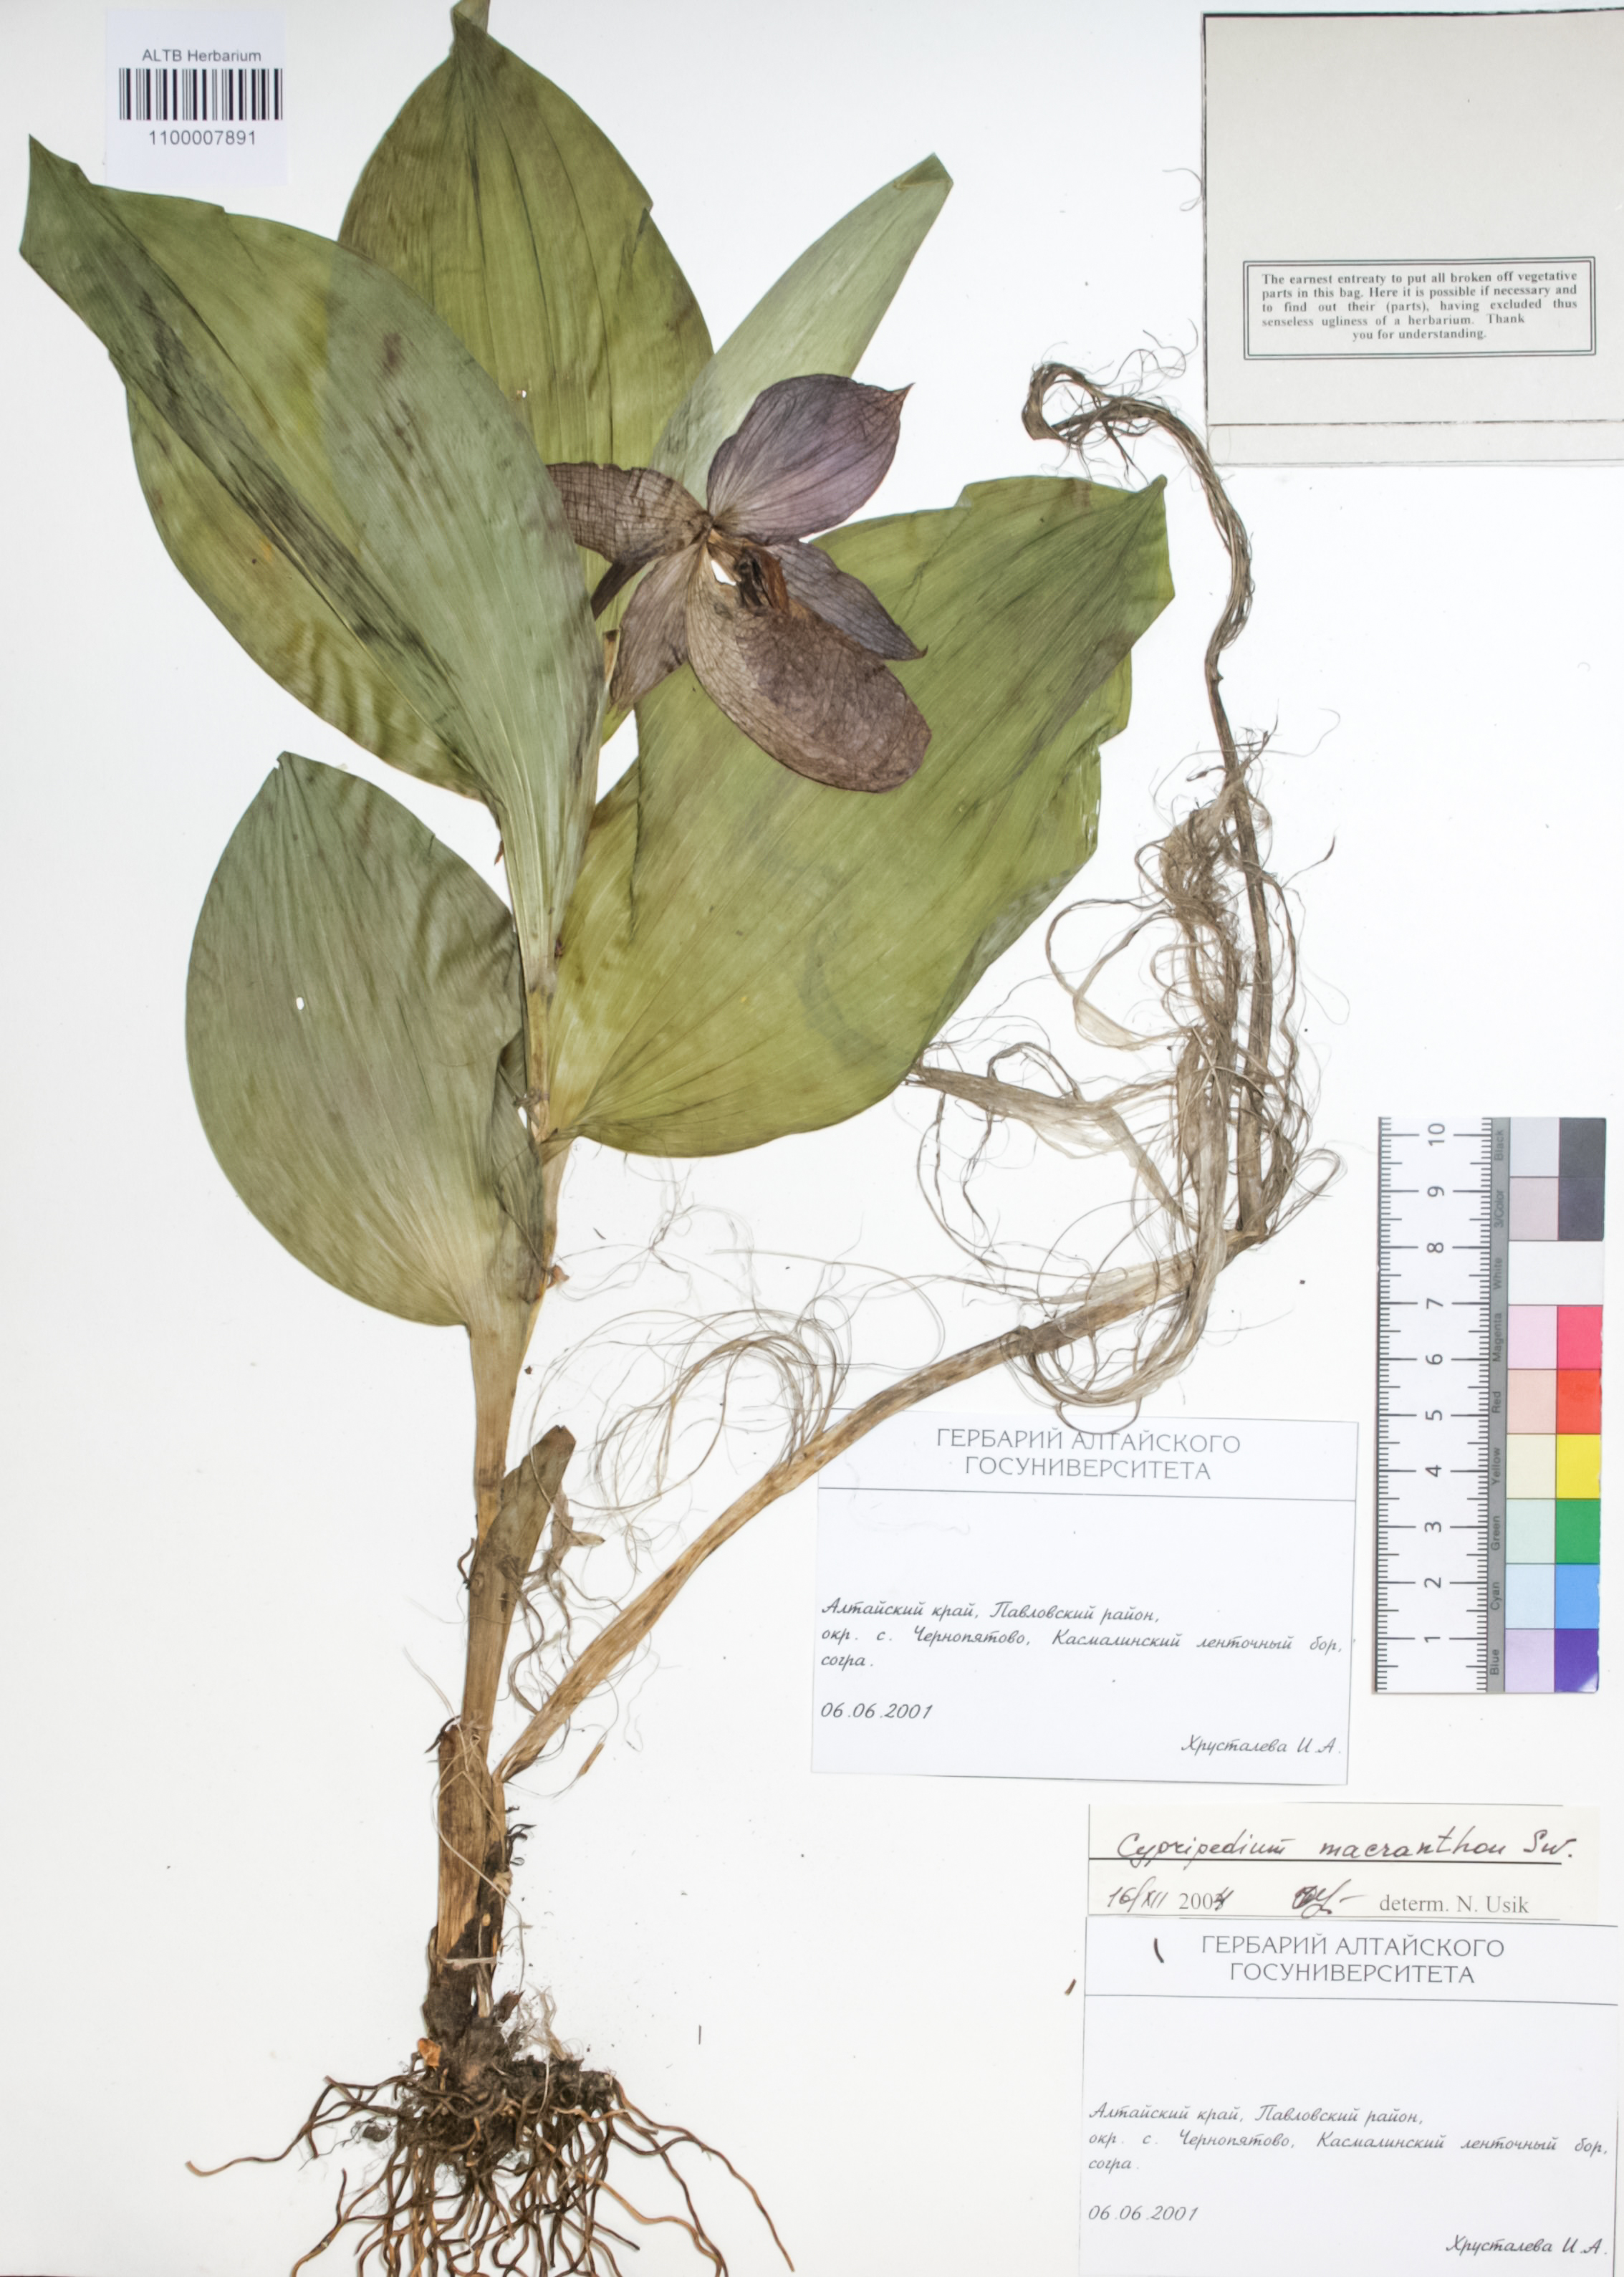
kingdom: Plantae
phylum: Tracheophyta
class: Liliopsida
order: Asparagales
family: Orchidaceae
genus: Cypripedium
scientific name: Cypripedium macranthon
